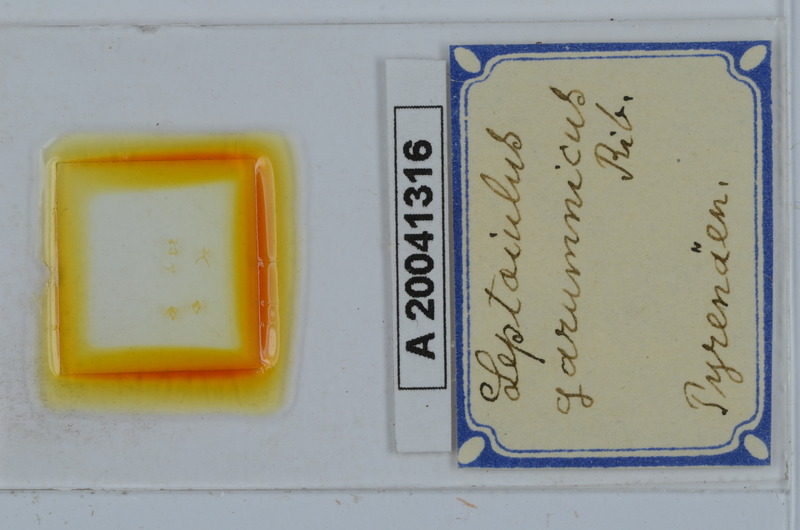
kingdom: Animalia
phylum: Arthropoda
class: Diplopoda
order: Julida
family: Julidae
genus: Leptoiulus
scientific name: Leptoiulus garumnicus
